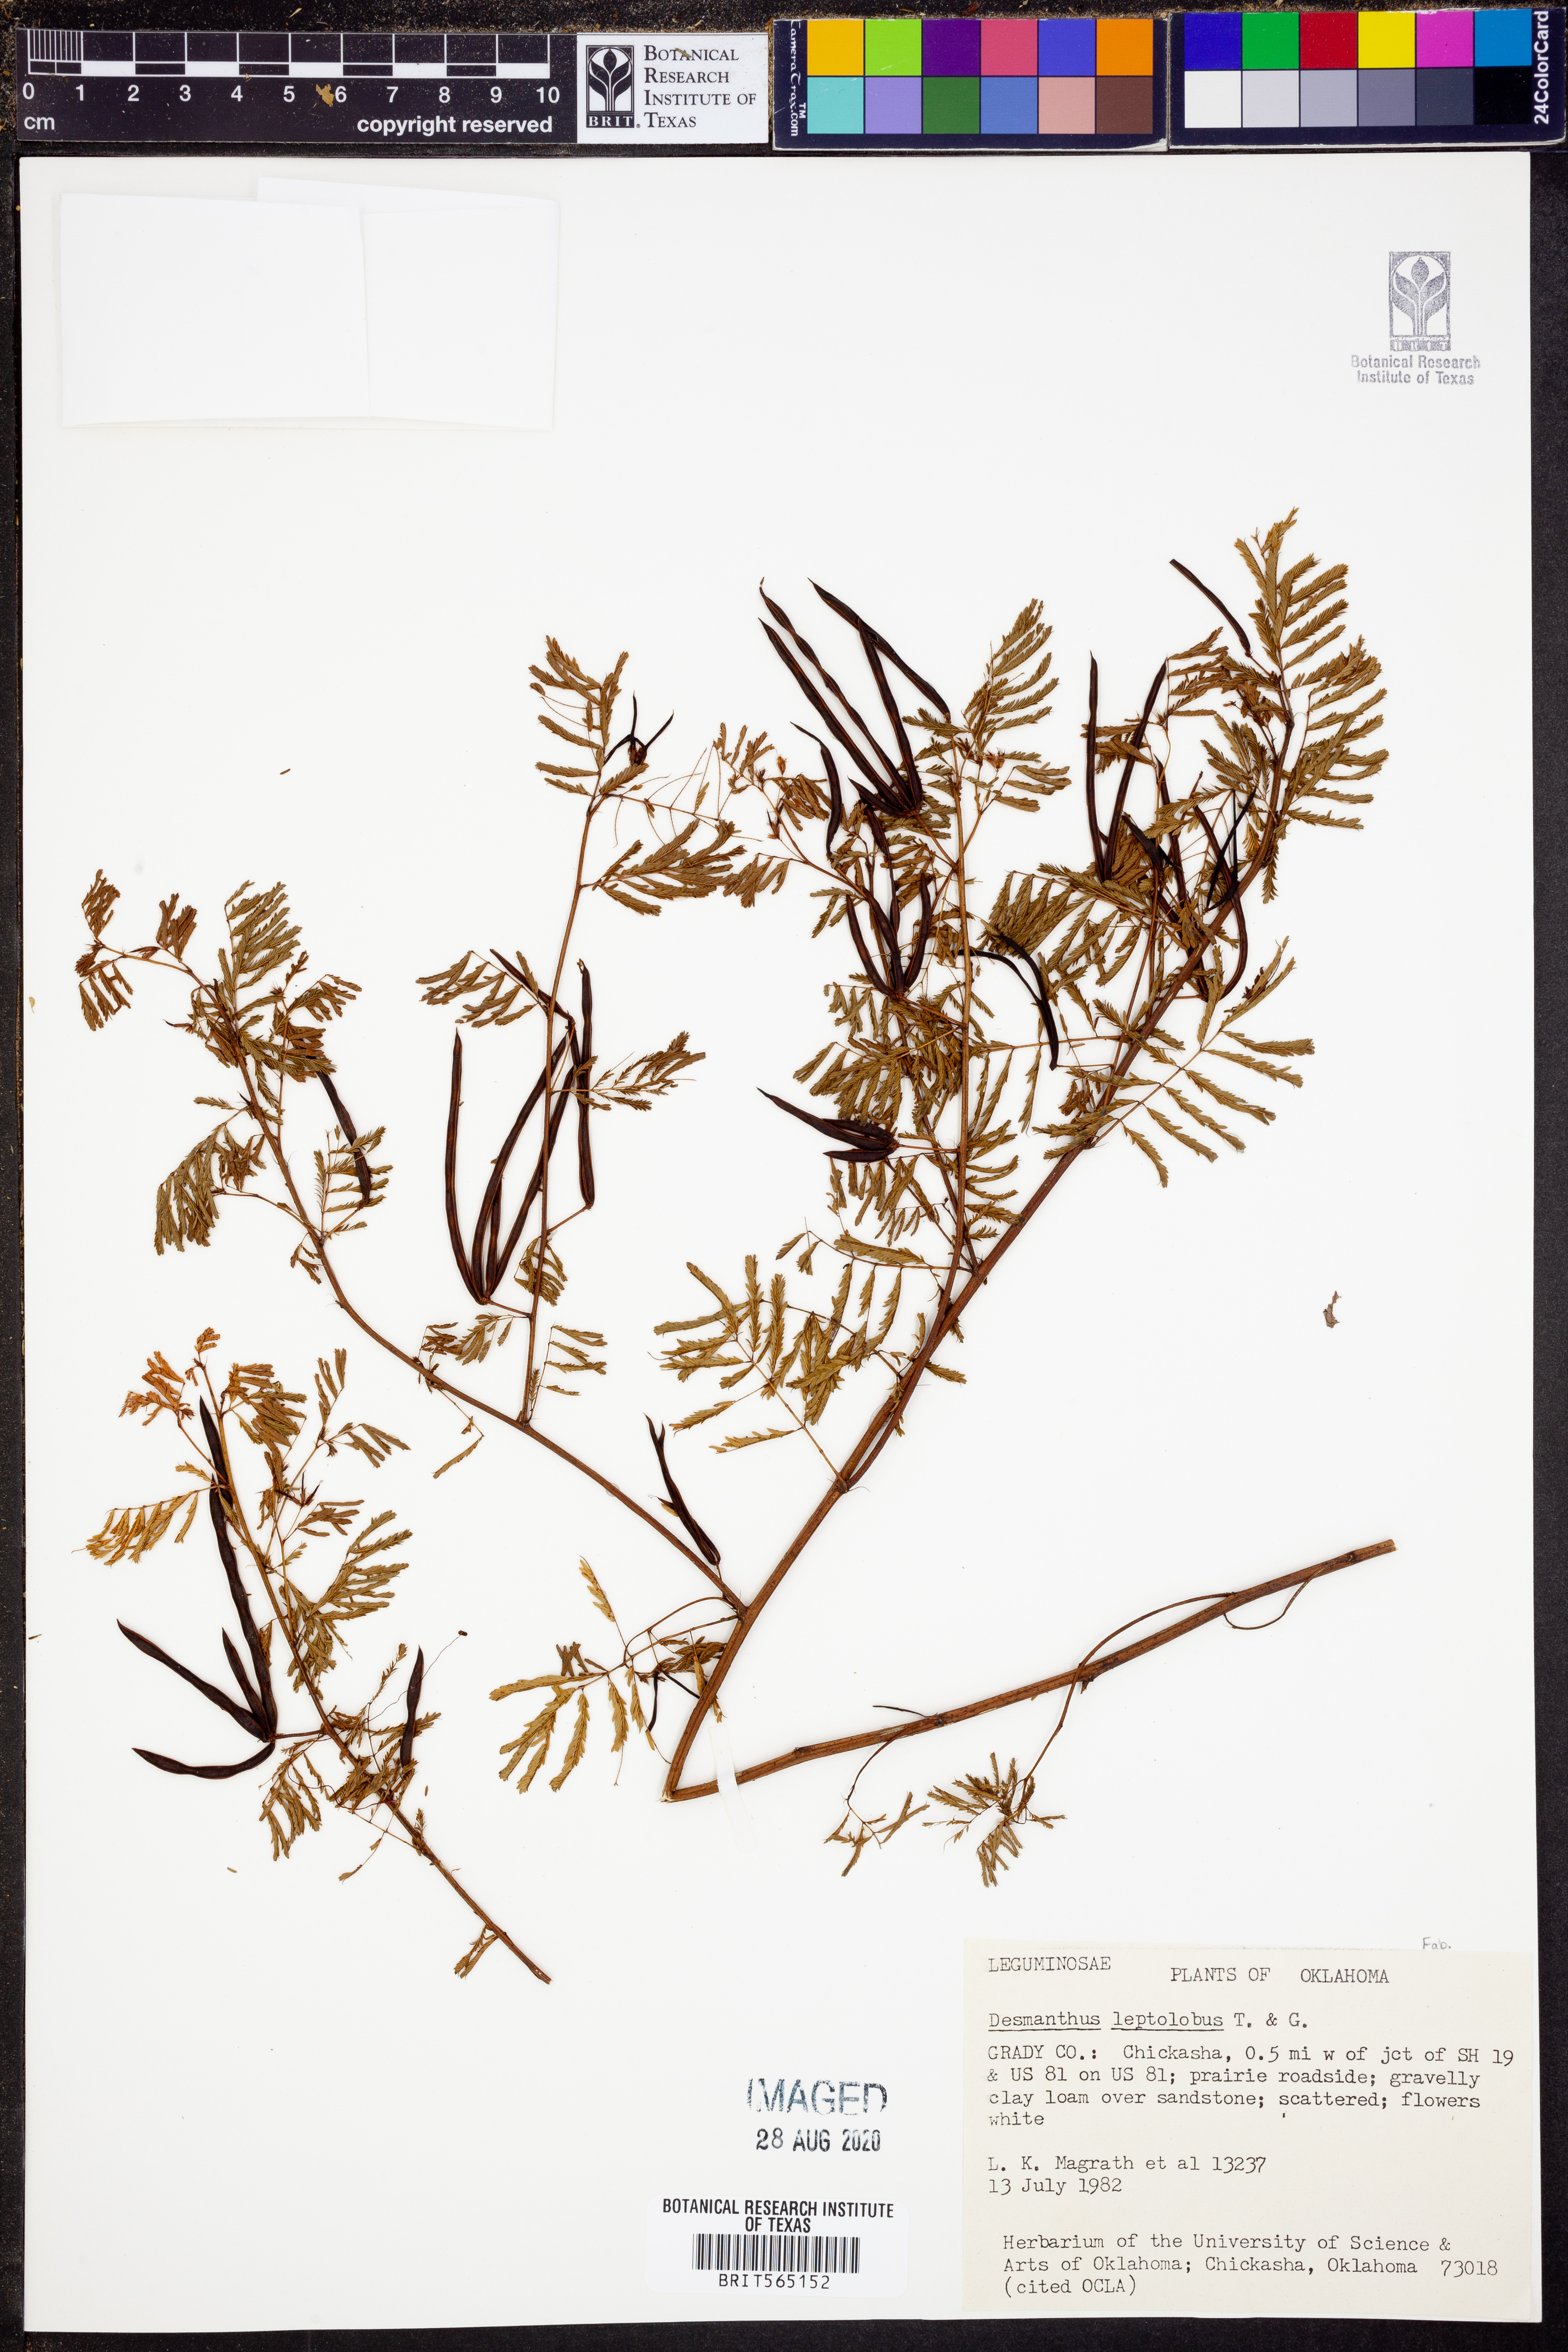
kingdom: Plantae
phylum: Tracheophyta
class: Magnoliopsida
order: Fabales
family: Fabaceae
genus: Desmanthus
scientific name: Desmanthus leptolobus
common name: Prairie-mimosa
